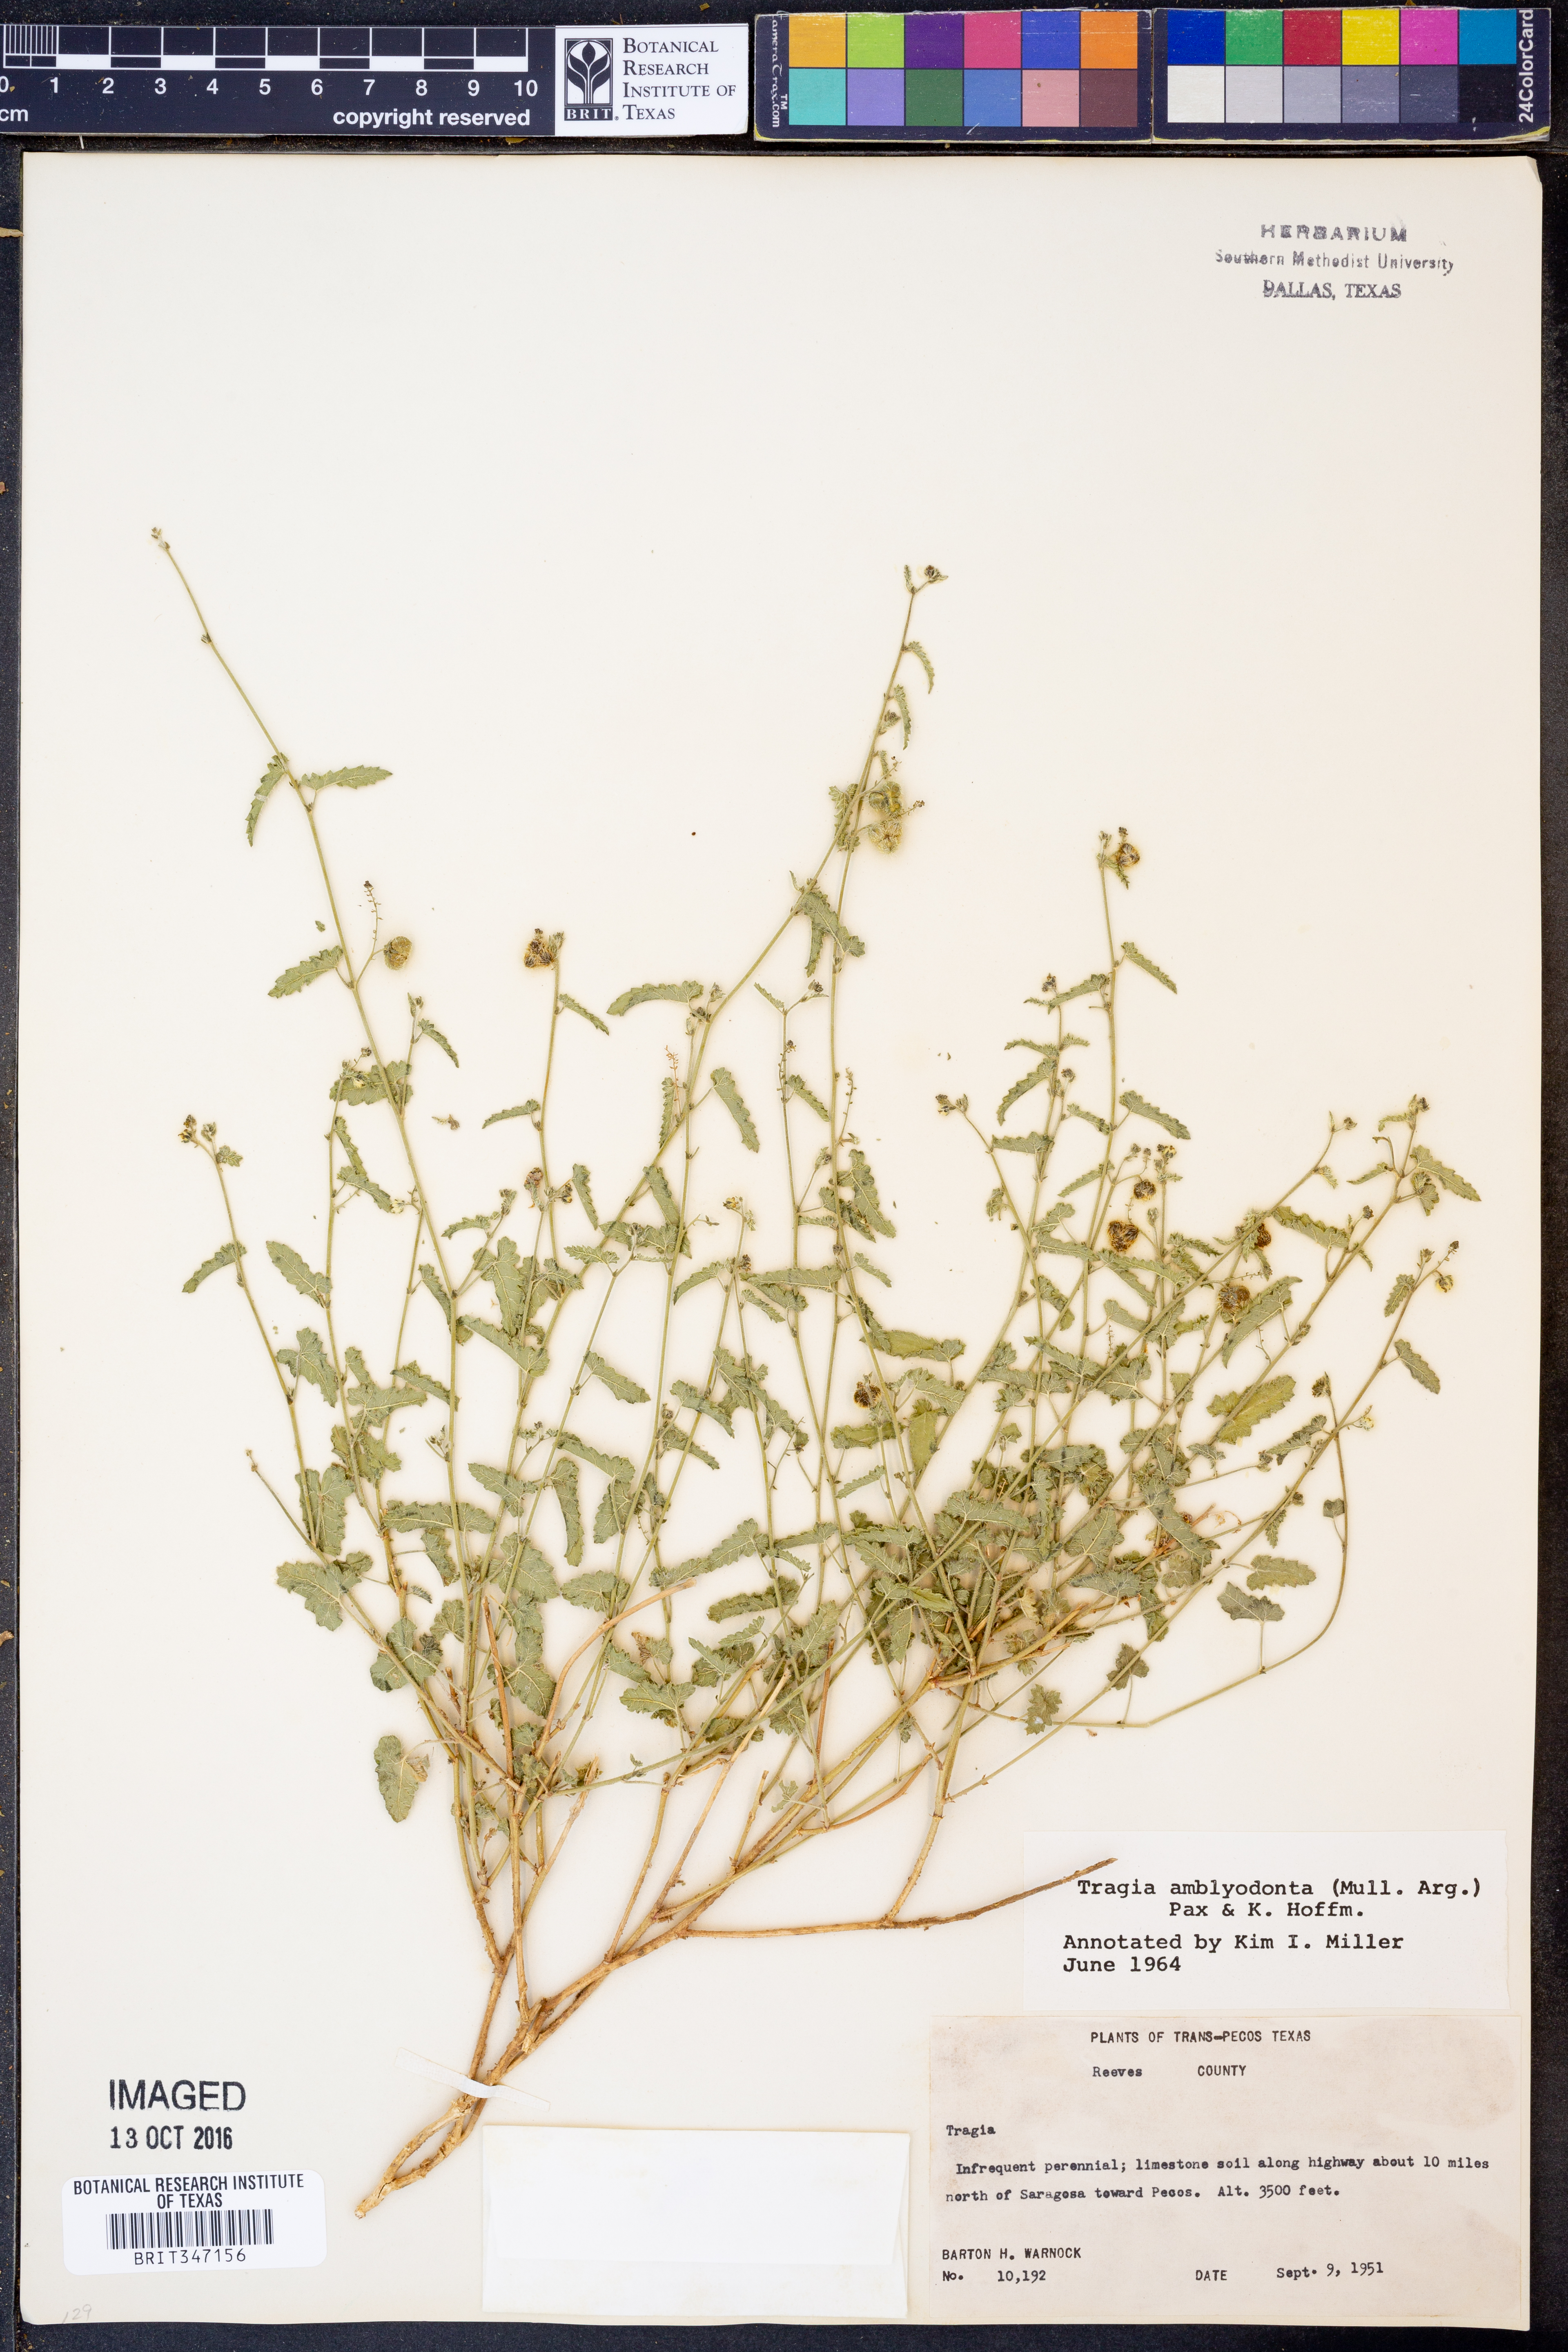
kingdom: Plantae
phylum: Tracheophyta
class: Magnoliopsida
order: Malpighiales
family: Euphorbiaceae
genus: Tragia
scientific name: Tragia amblyodonta
